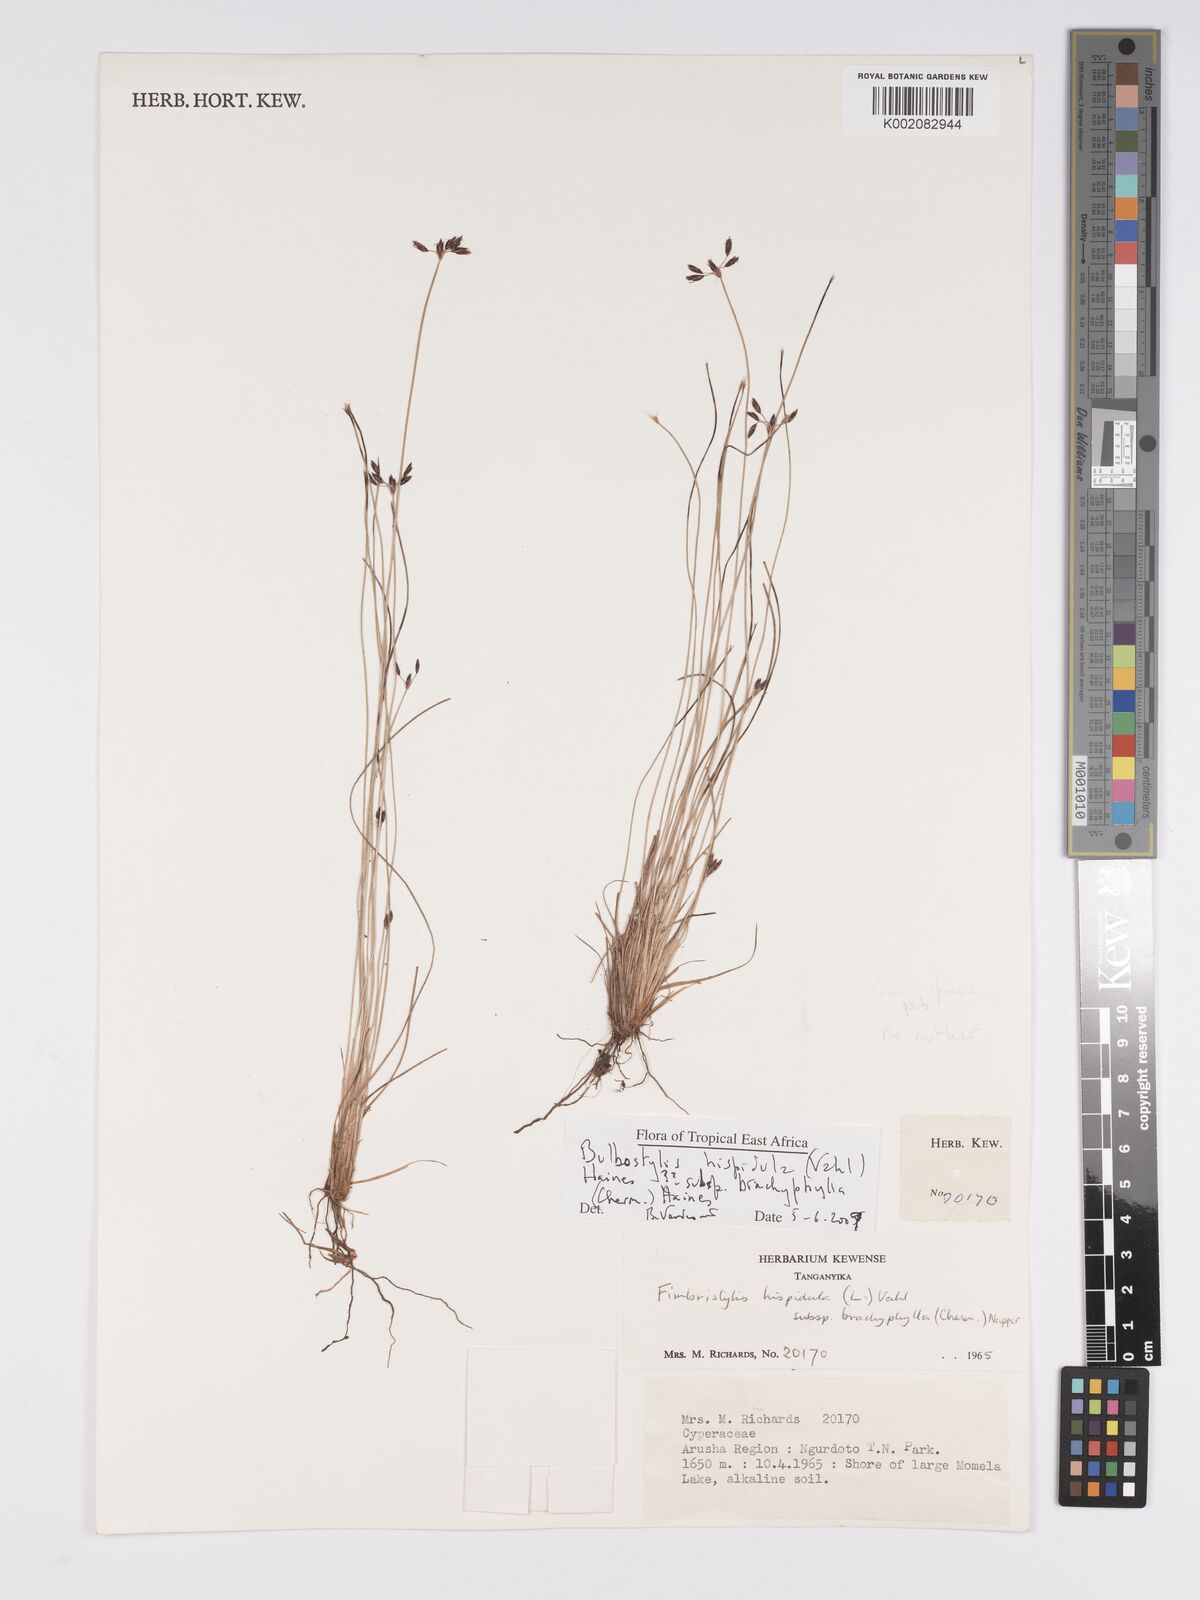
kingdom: Plantae
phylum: Tracheophyta
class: Liliopsida
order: Poales
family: Cyperaceae
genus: Bulbostylis
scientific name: Bulbostylis hispidula
